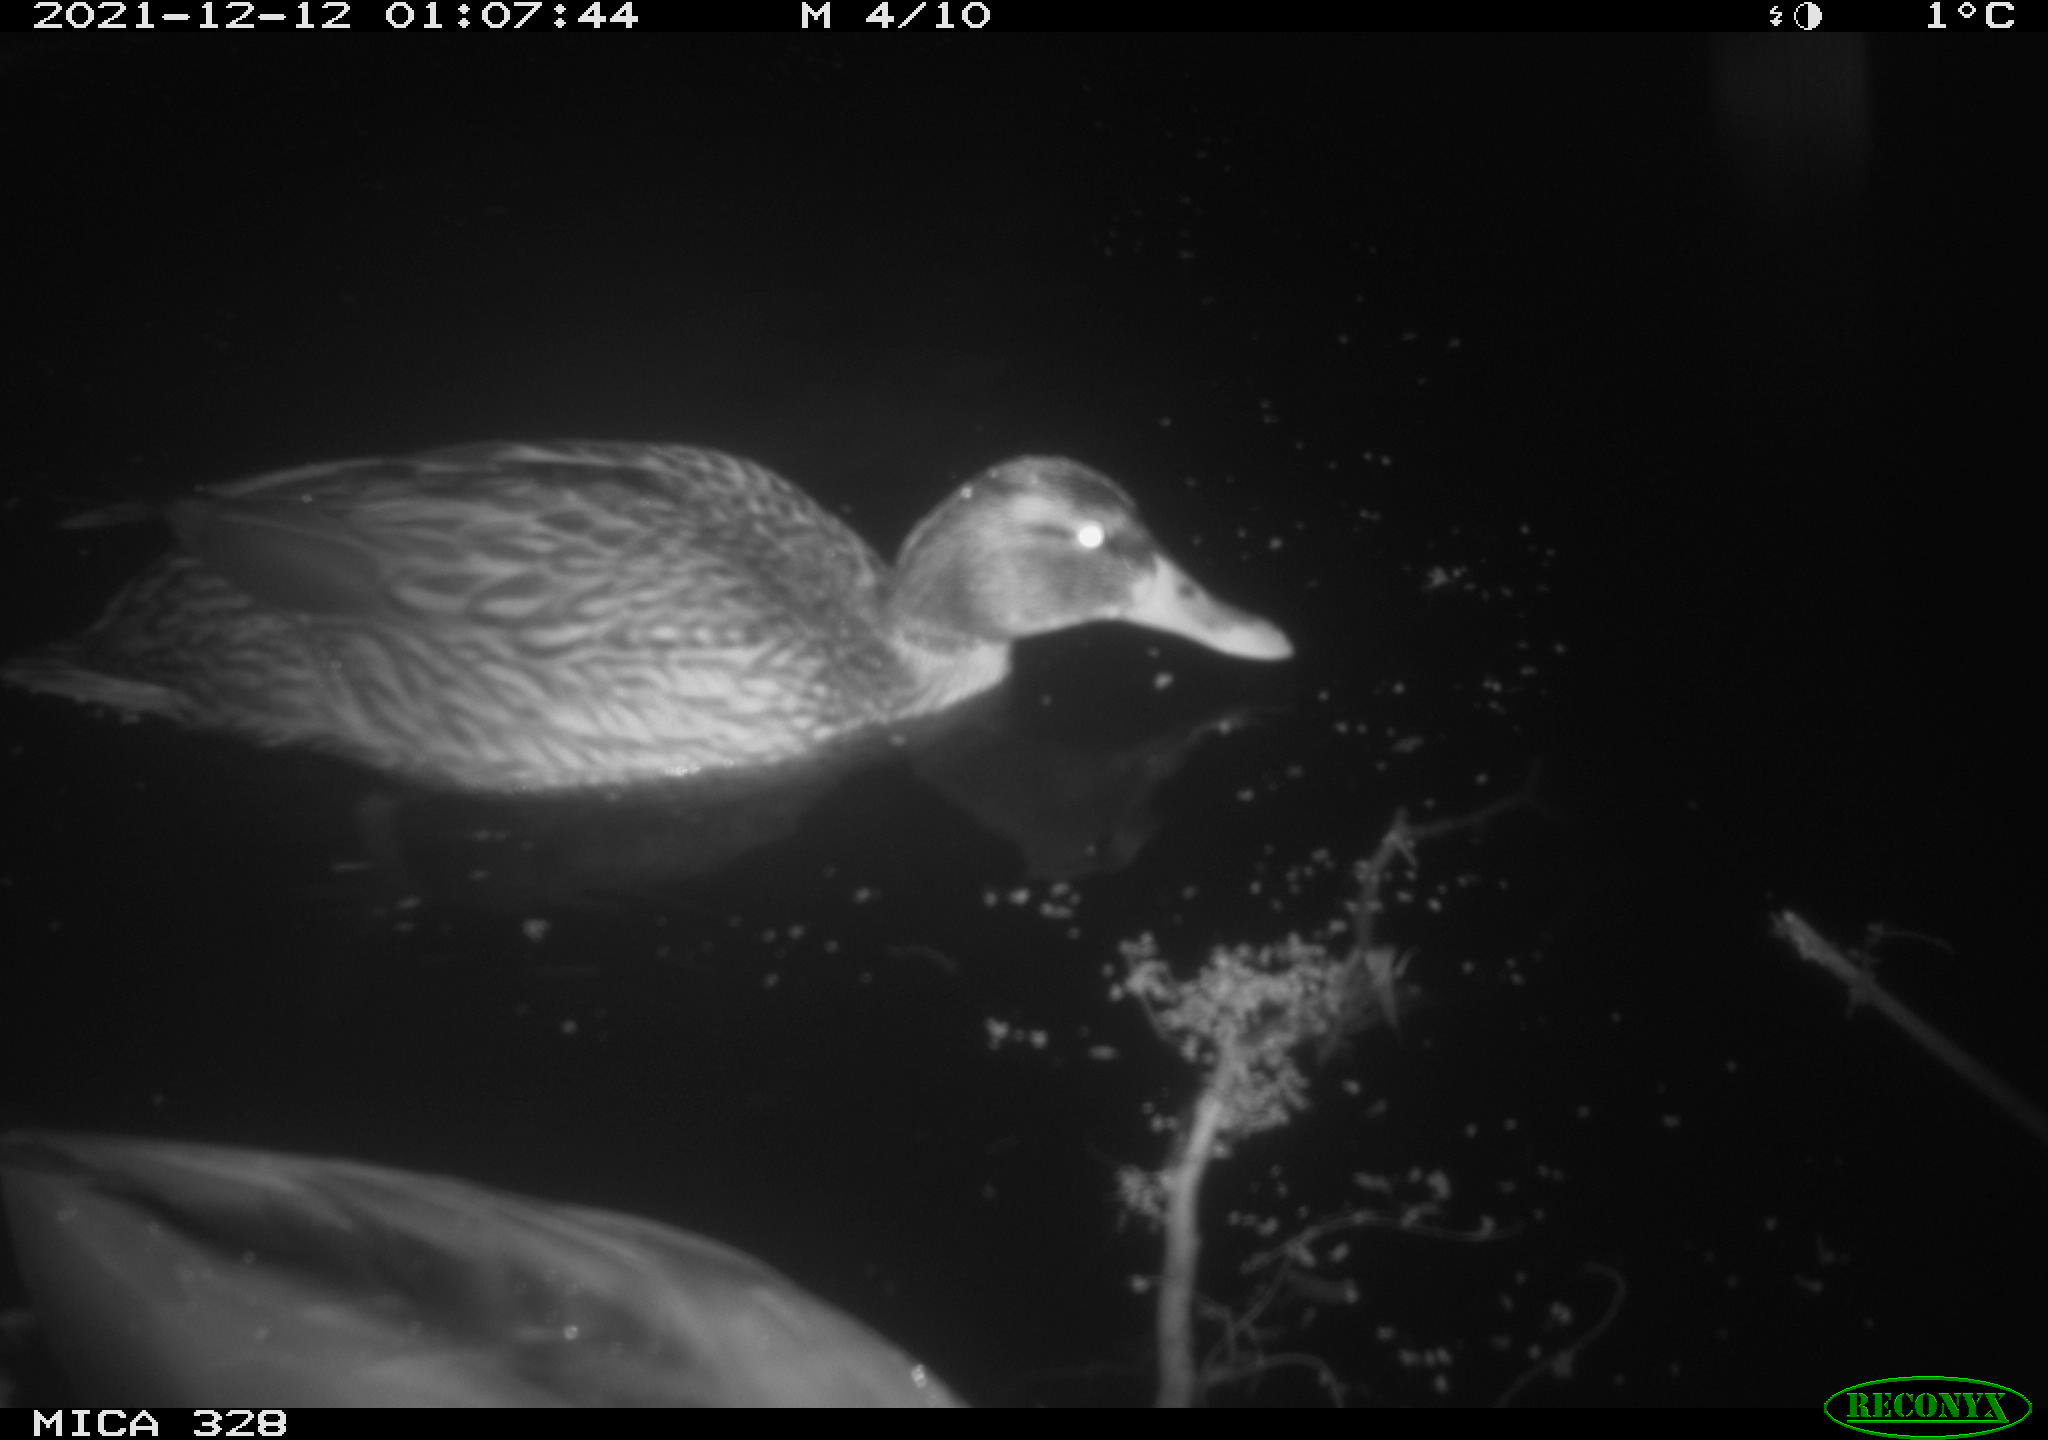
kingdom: Animalia
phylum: Chordata
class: Aves
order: Anseriformes
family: Anatidae
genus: Anas
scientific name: Anas platyrhynchos
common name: Mallard
